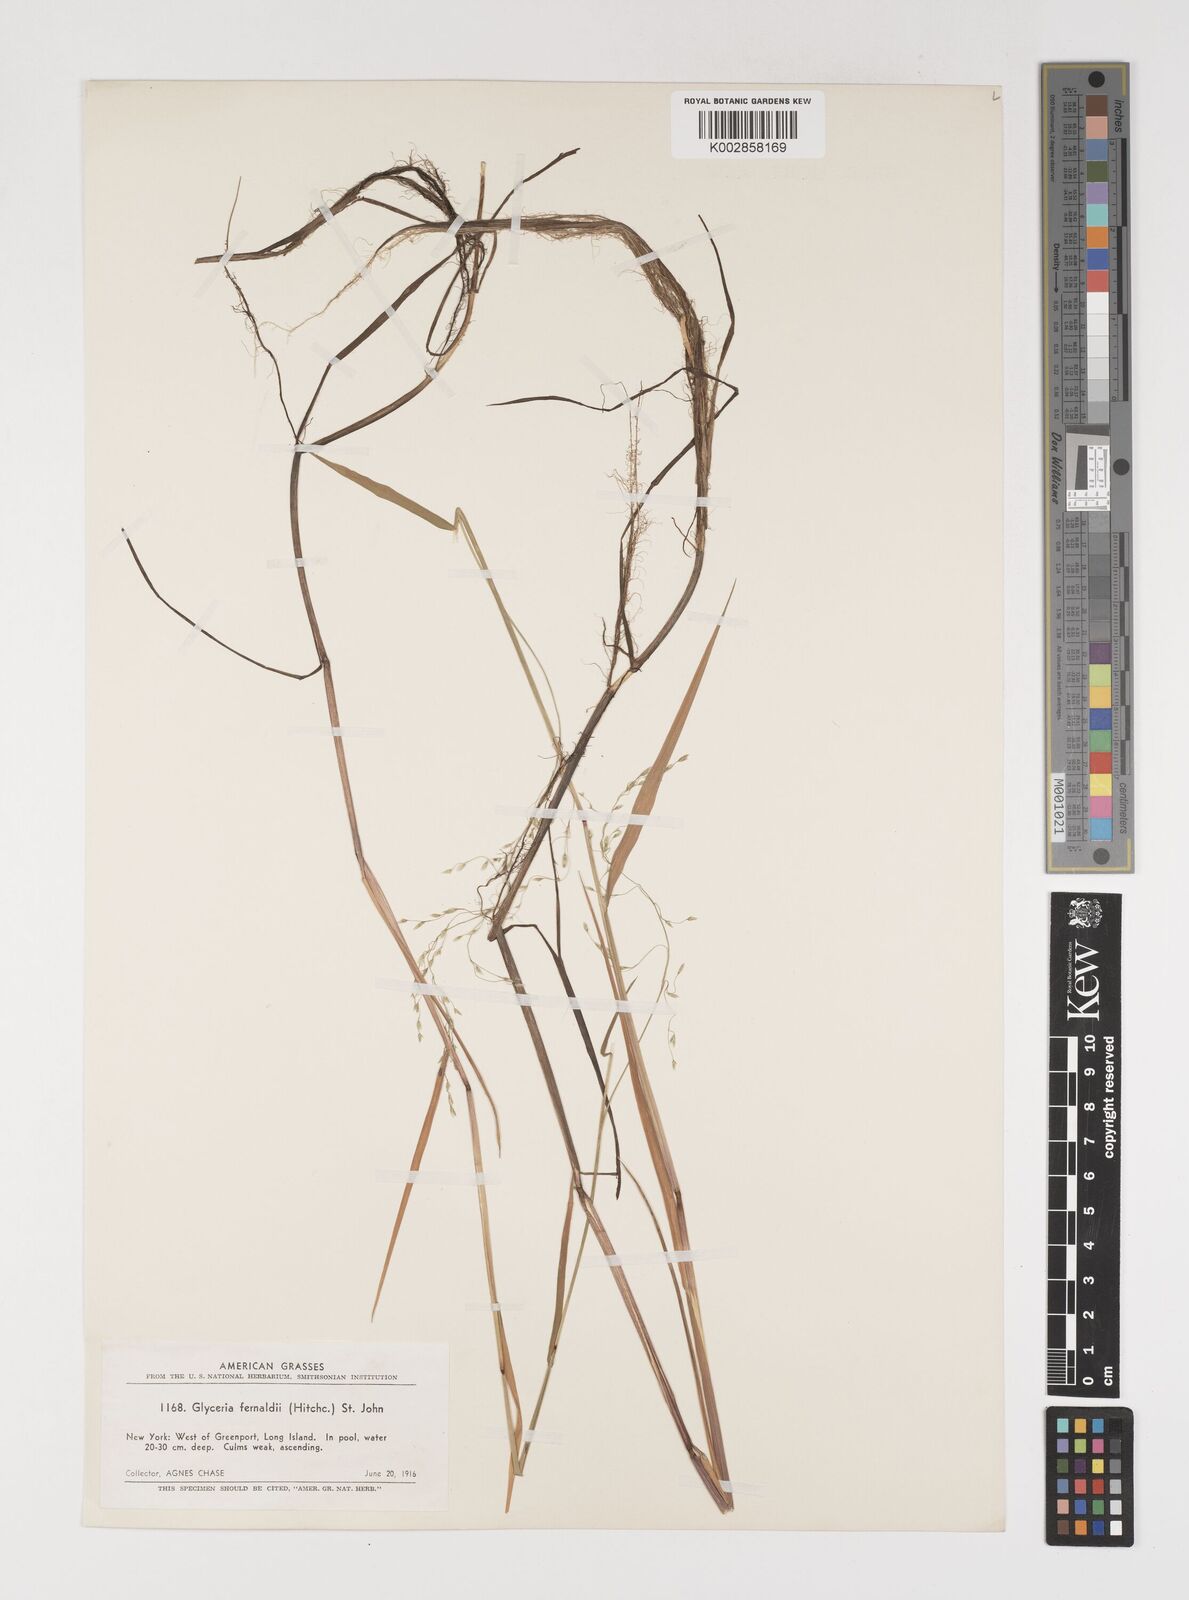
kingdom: Plantae
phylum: Tracheophyta
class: Liliopsida
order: Poales
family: Poaceae
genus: Torreyochloa
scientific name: Torreyochloa pallida
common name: Pale false mannagrass
